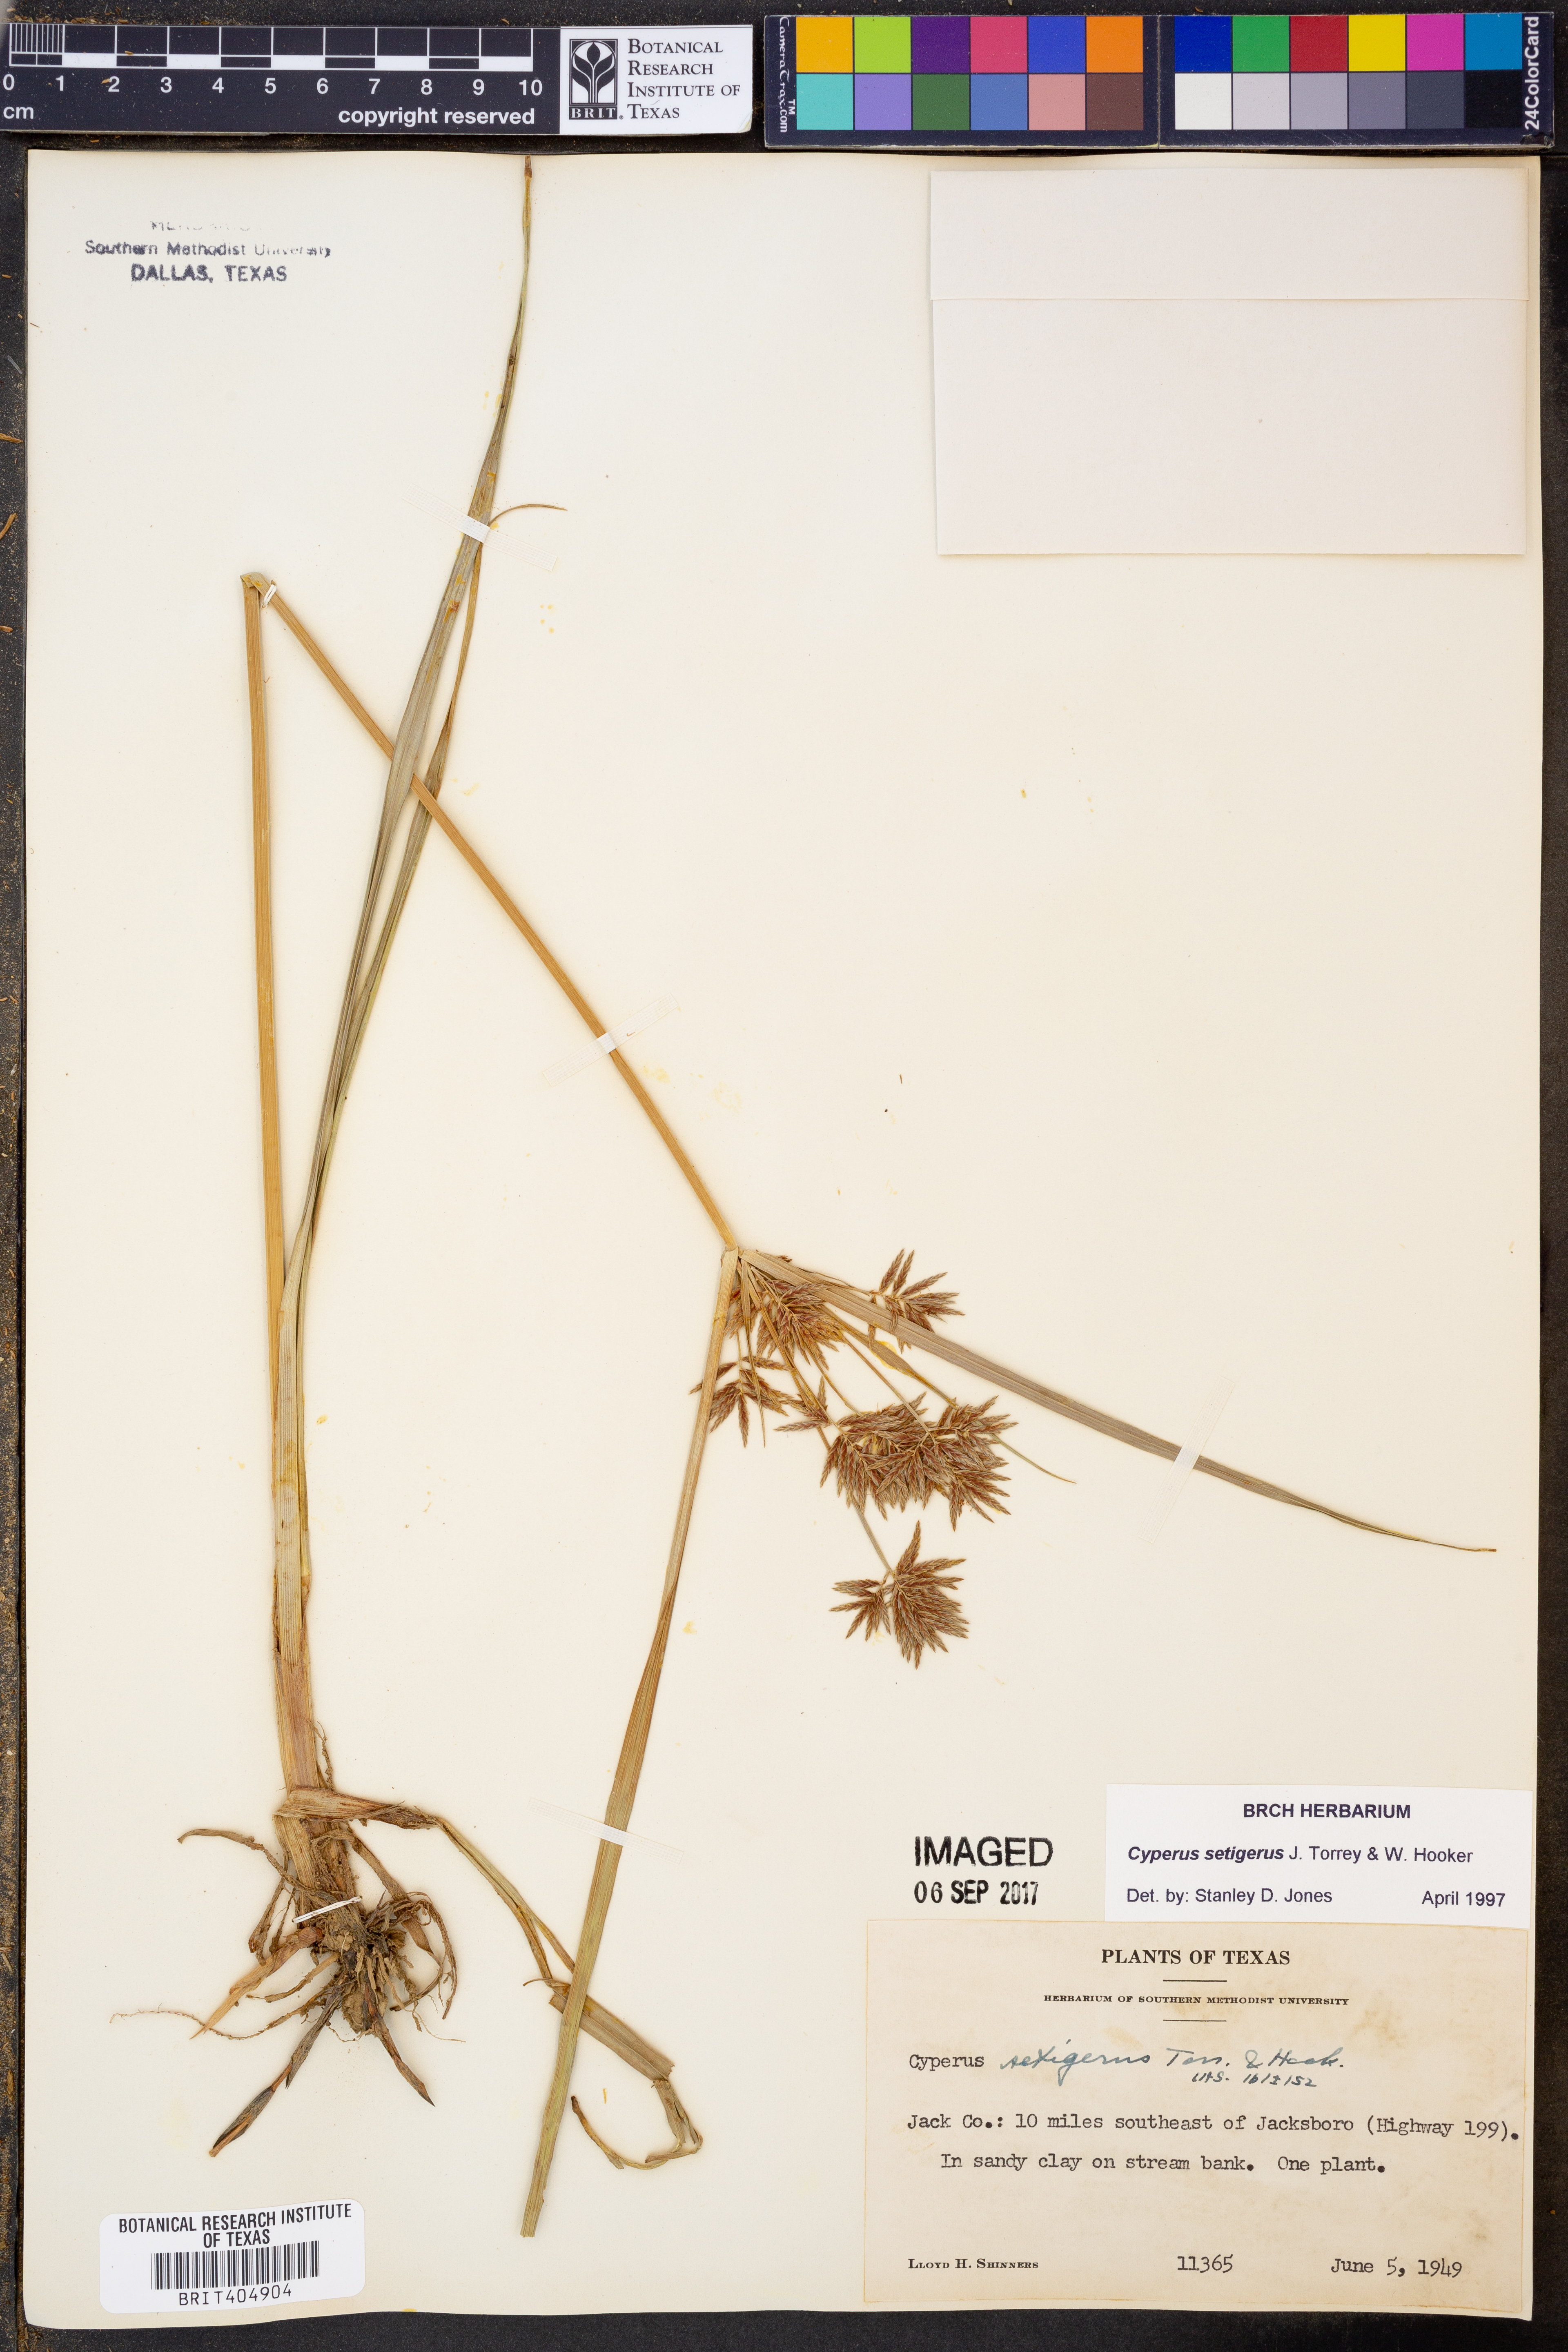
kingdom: Plantae
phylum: Tracheophyta
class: Liliopsida
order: Poales
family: Cyperaceae
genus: Cyperus
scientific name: Cyperus setigerus
